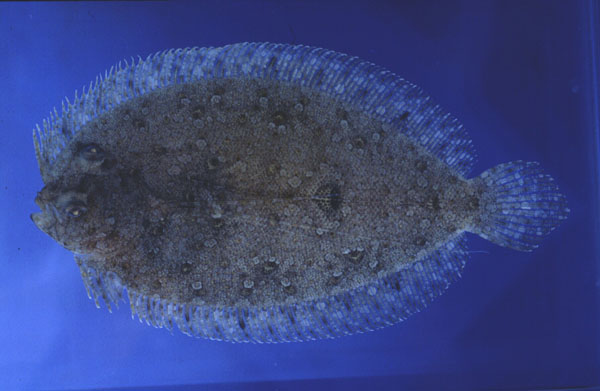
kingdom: Animalia
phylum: Chordata
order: Pleuronectiformes
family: Bothidae
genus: Bothus
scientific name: Bothus pantherinus
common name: Leopard flounder
